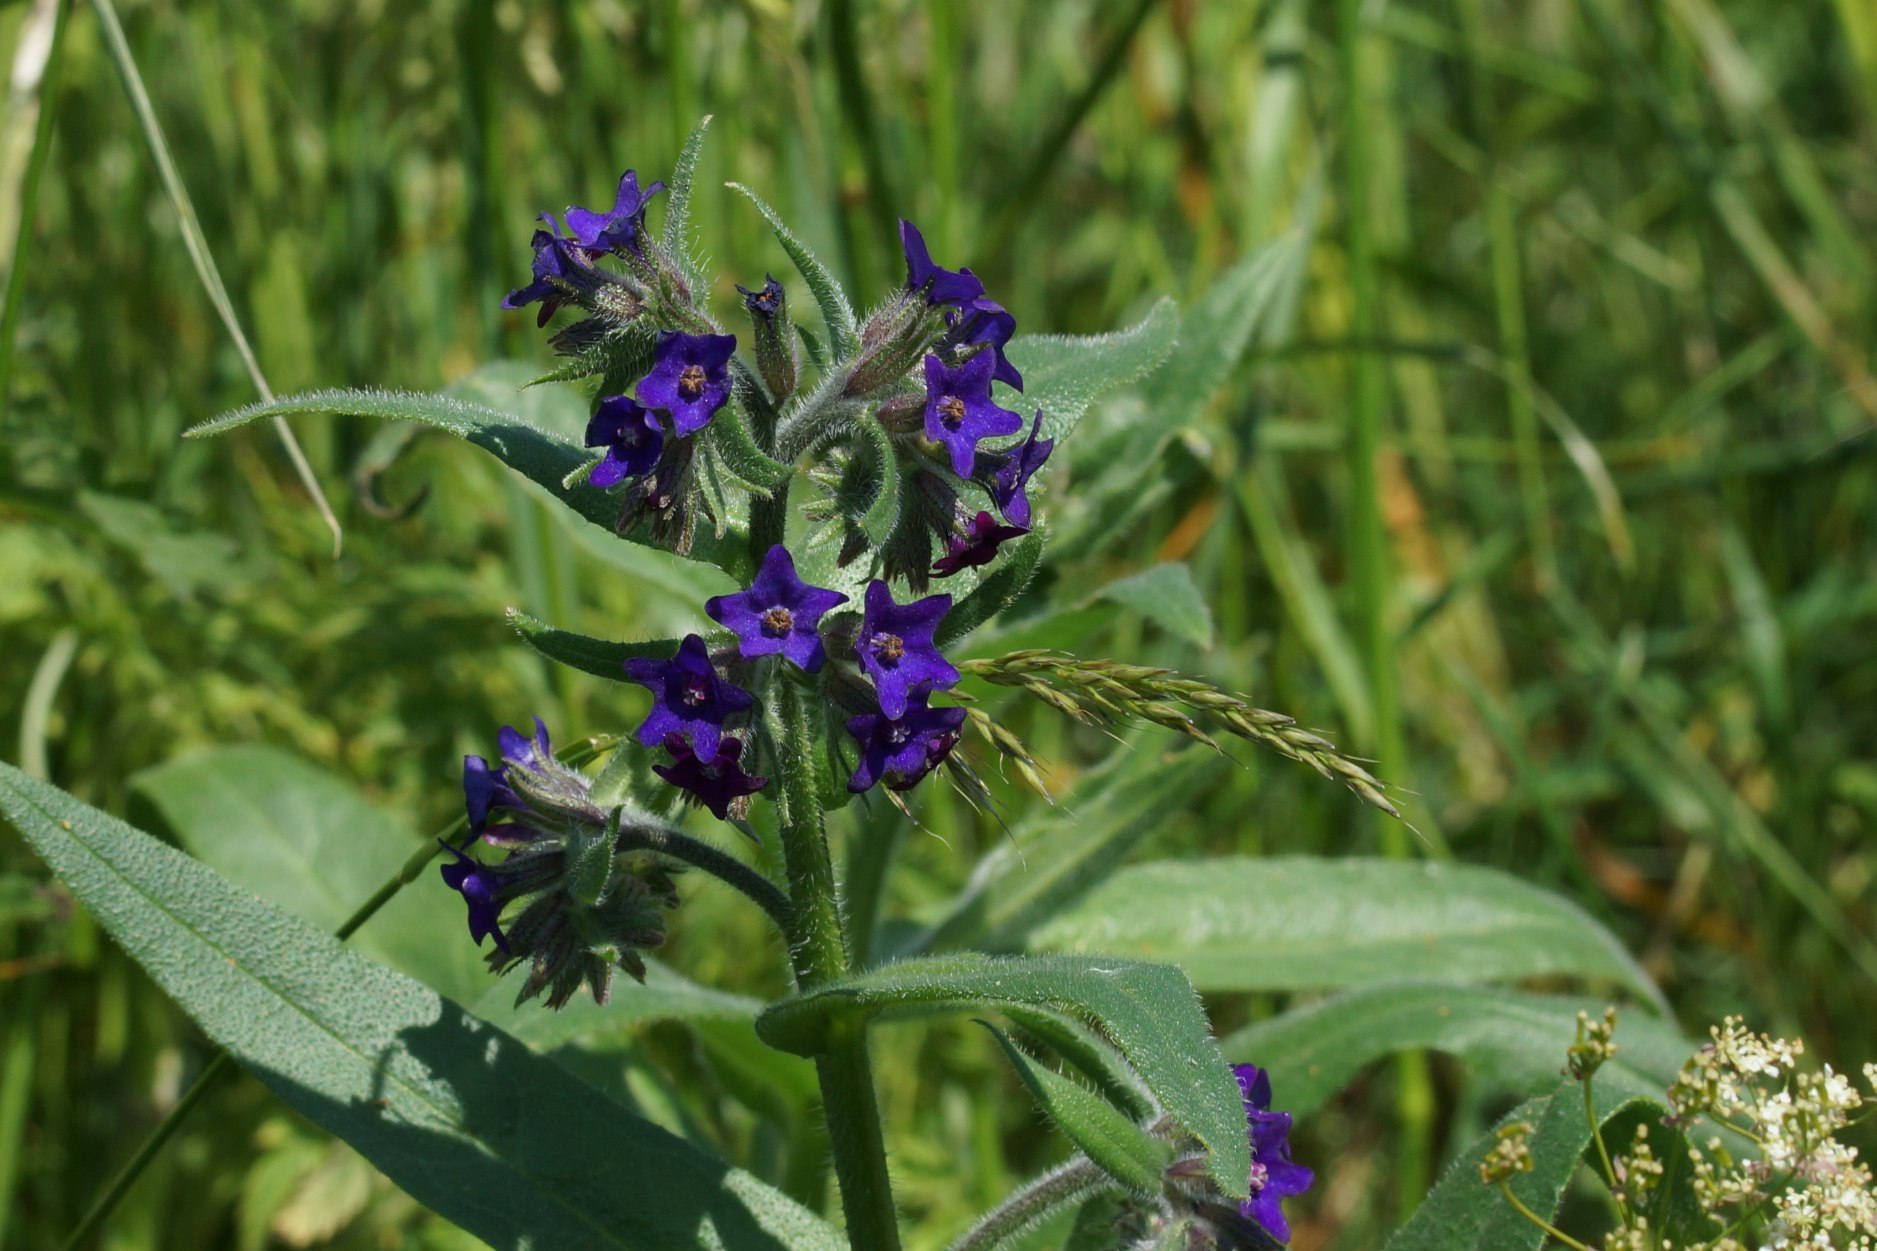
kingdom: Plantae
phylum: Tracheophyta
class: Magnoliopsida
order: Boraginales
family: Boraginaceae
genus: Anchusa
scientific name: Anchusa officinalis
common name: Læge-oksetunge
